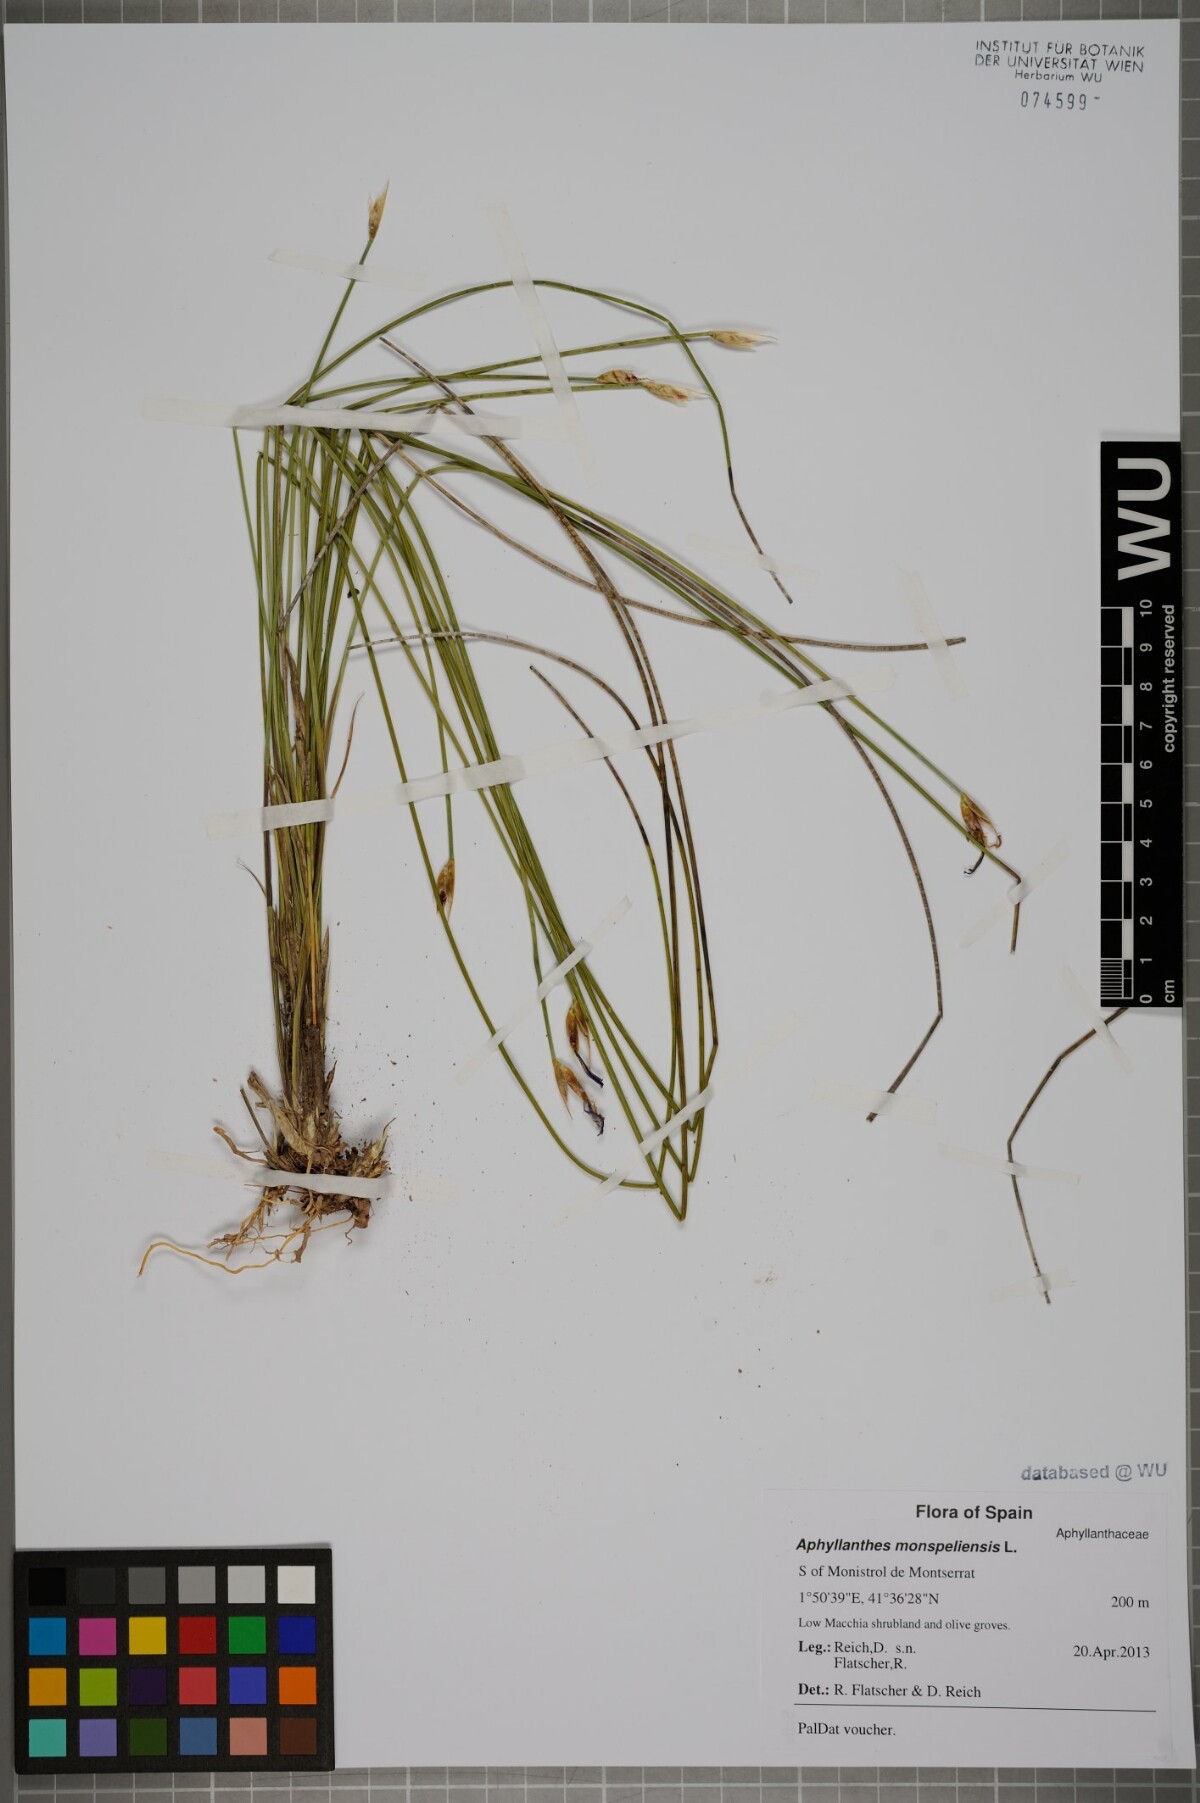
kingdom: Plantae
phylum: Tracheophyta
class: Liliopsida
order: Asparagales
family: Asparagaceae
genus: Aphyllanthes
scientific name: Aphyllanthes monspeliensis
